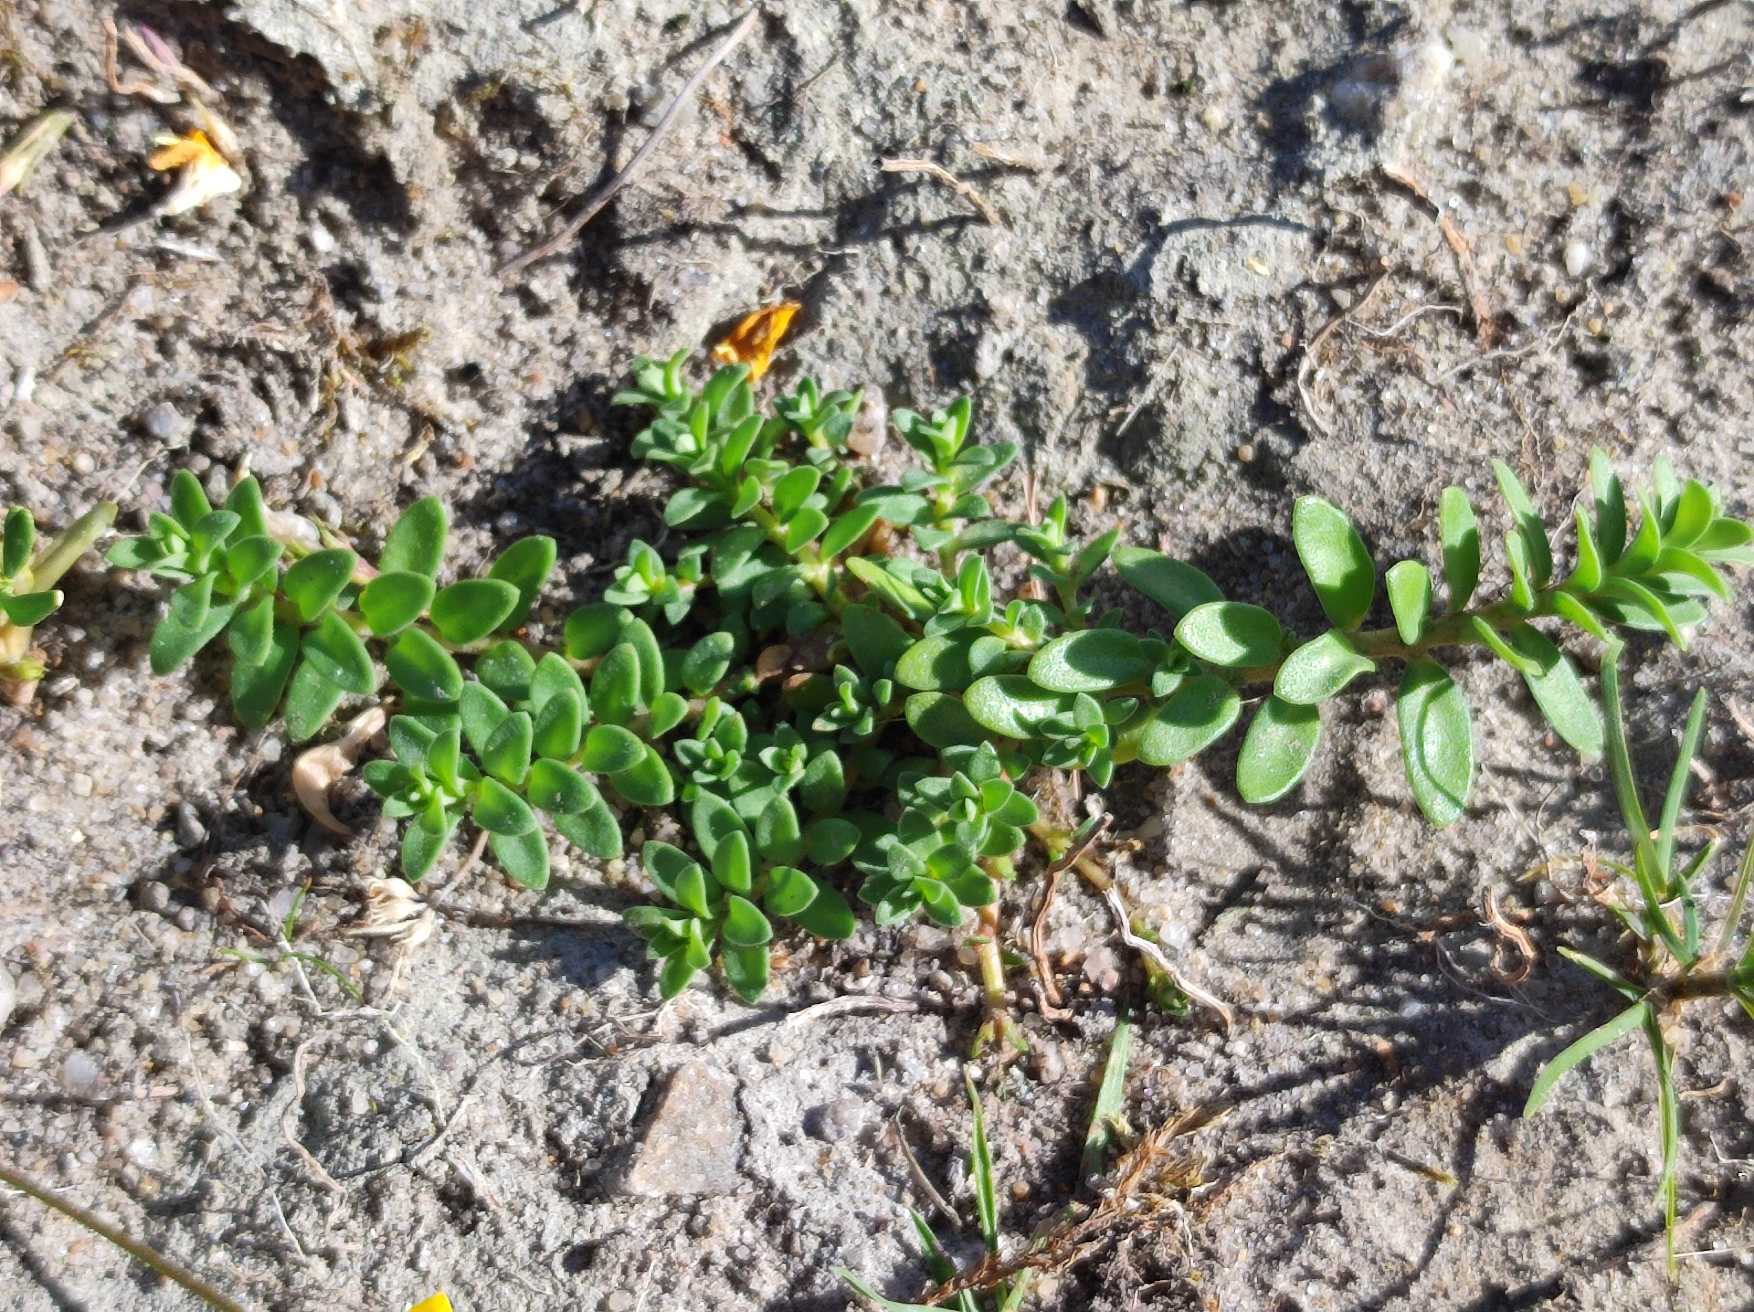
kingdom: Plantae
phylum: Tracheophyta
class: Magnoliopsida
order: Ericales
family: Primulaceae
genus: Lysimachia
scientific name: Lysimachia maritima
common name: Sandkryb
